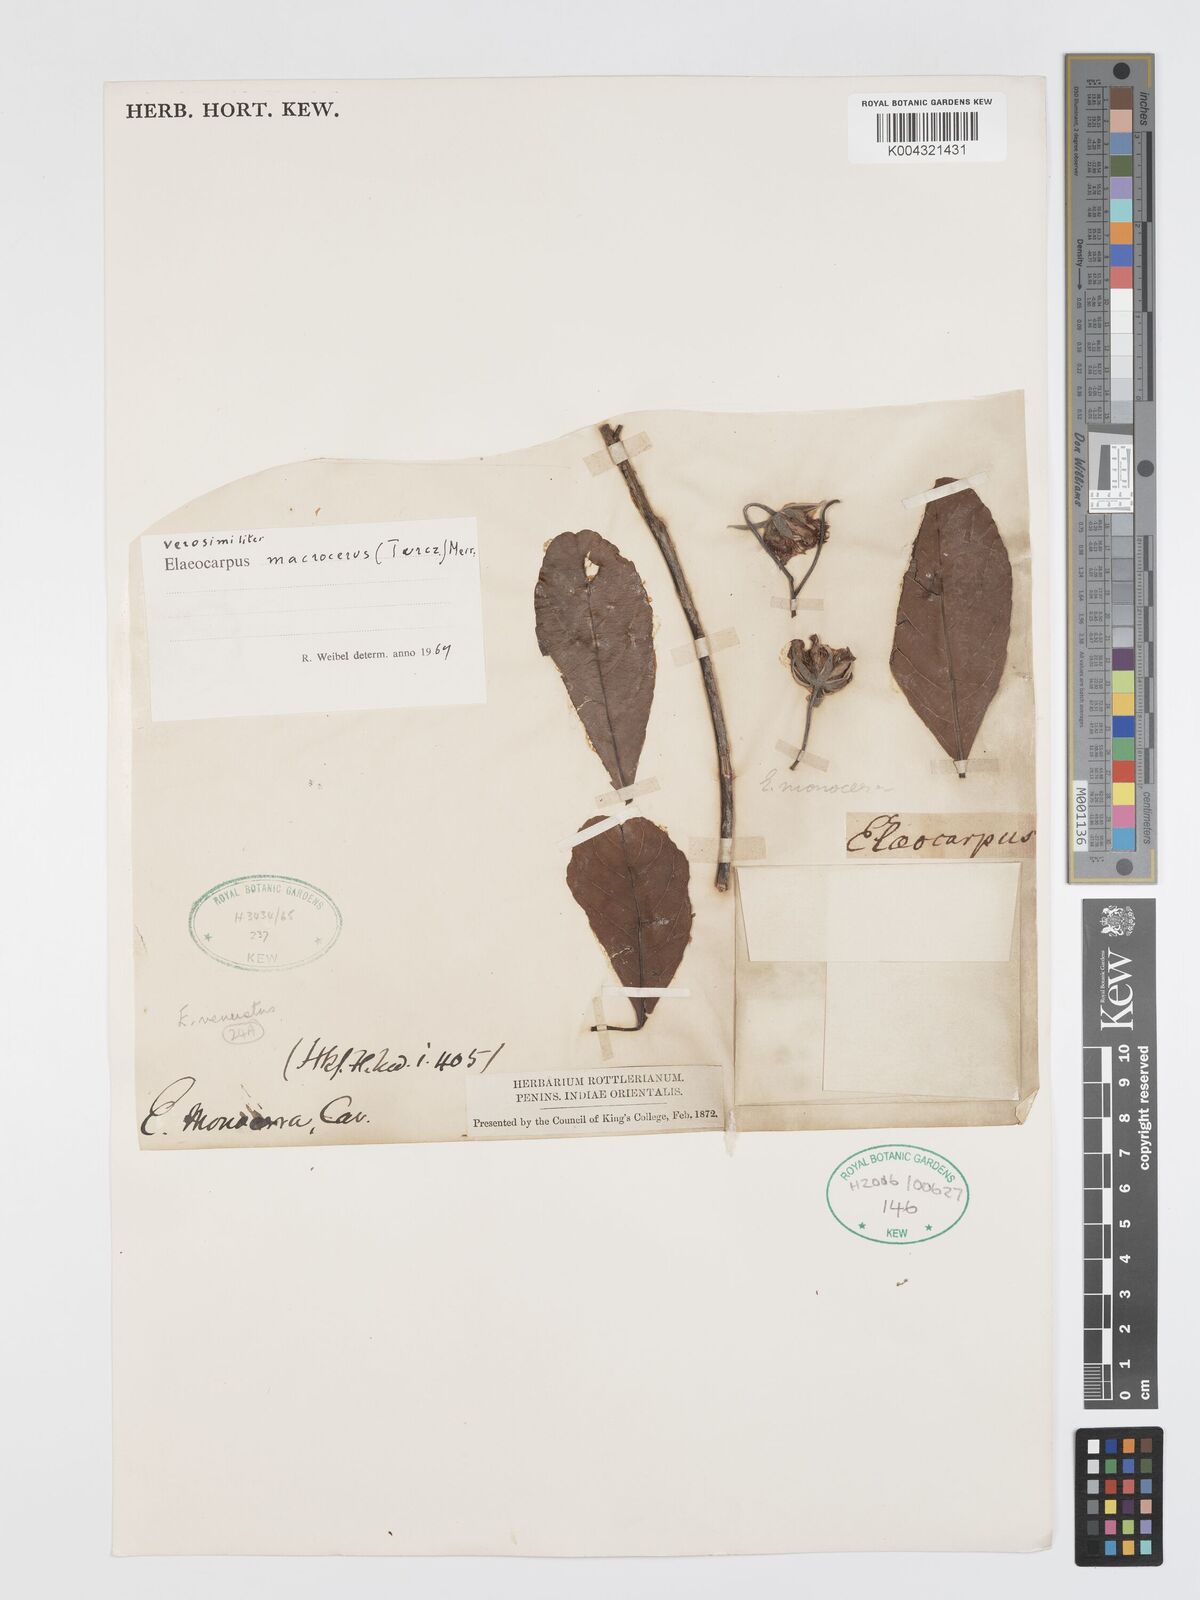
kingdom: Plantae
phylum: Tracheophyta
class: Magnoliopsida
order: Oxalidales
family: Elaeocarpaceae
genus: Elaeocarpus
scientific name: Elaeocarpus macrocerus
